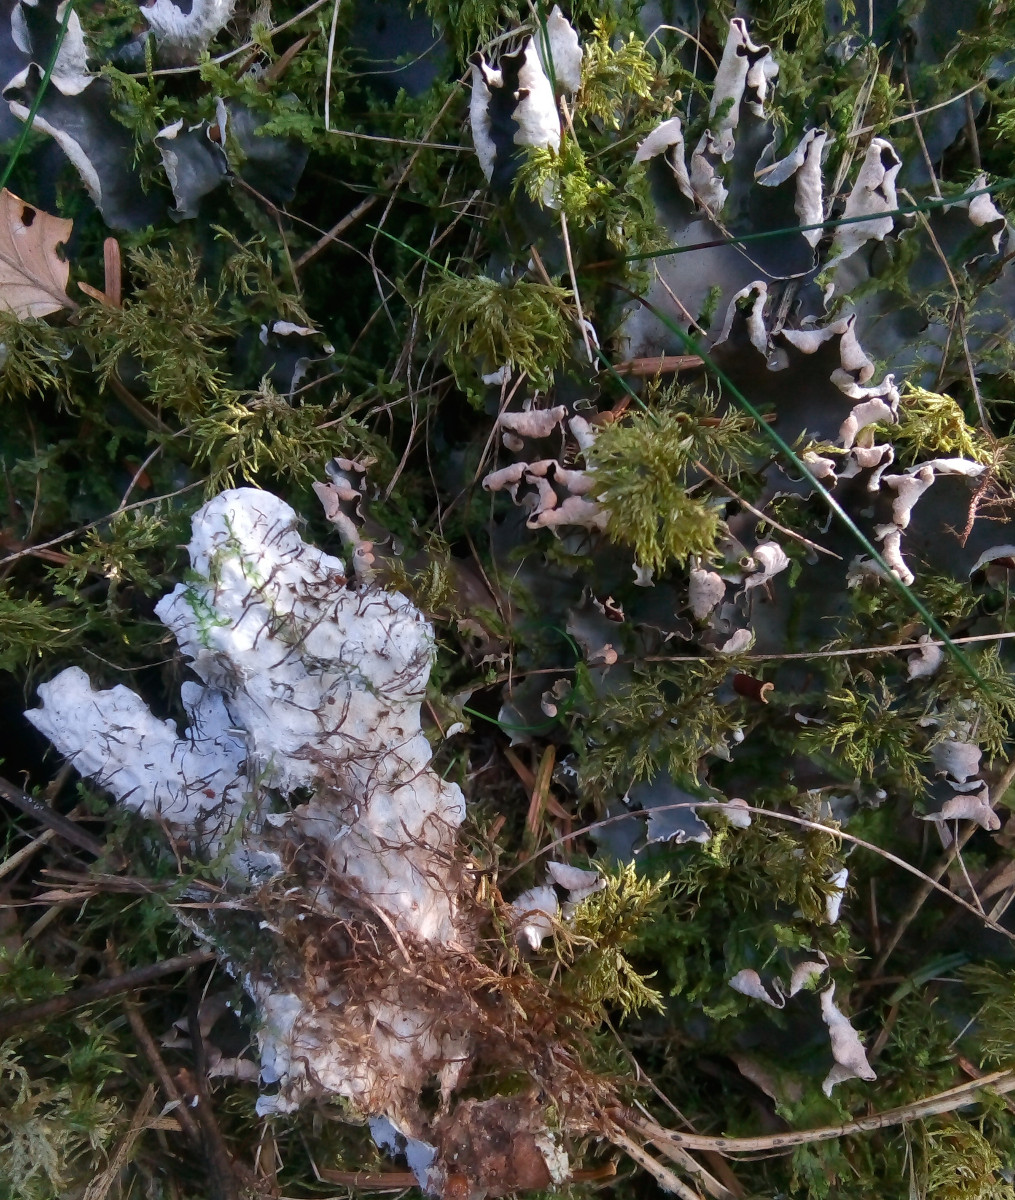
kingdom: Fungi
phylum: Ascomycota
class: Lecanoromycetes
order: Peltigerales
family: Peltigeraceae
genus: Peltigera
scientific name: Peltigera hymenina
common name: hinde-skjoldlav
